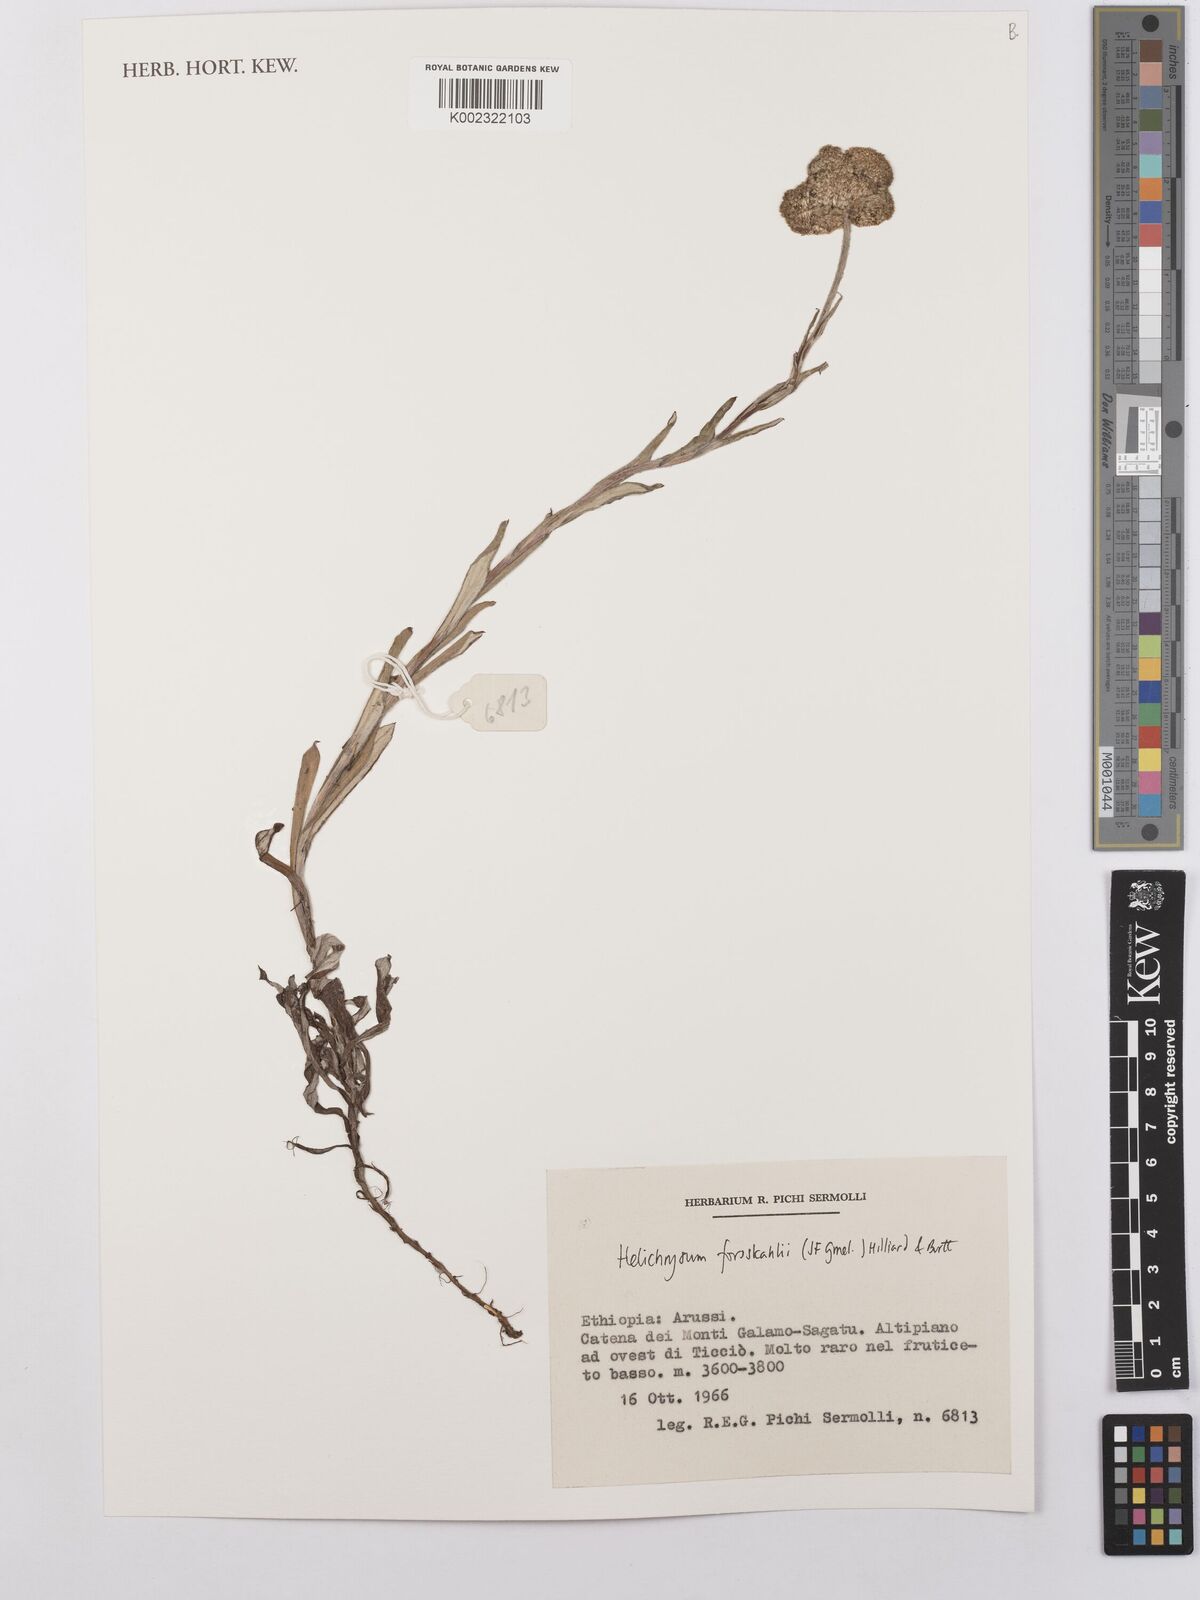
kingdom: Plantae
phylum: Tracheophyta
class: Magnoliopsida
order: Asterales
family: Asteraceae
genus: Helichrysum
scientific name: Helichrysum forskahlii
